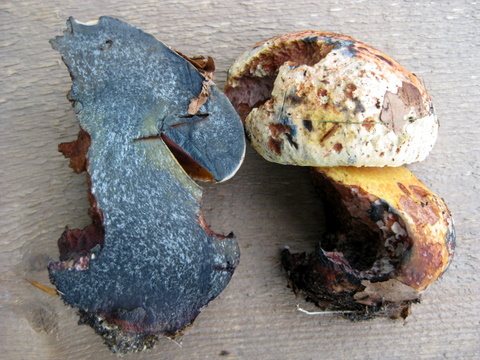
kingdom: Fungi
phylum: Basidiomycota
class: Agaricomycetes
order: Boletales
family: Boletaceae
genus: Imperator
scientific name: Imperator rhodopurpureus
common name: purpur-rørhat
